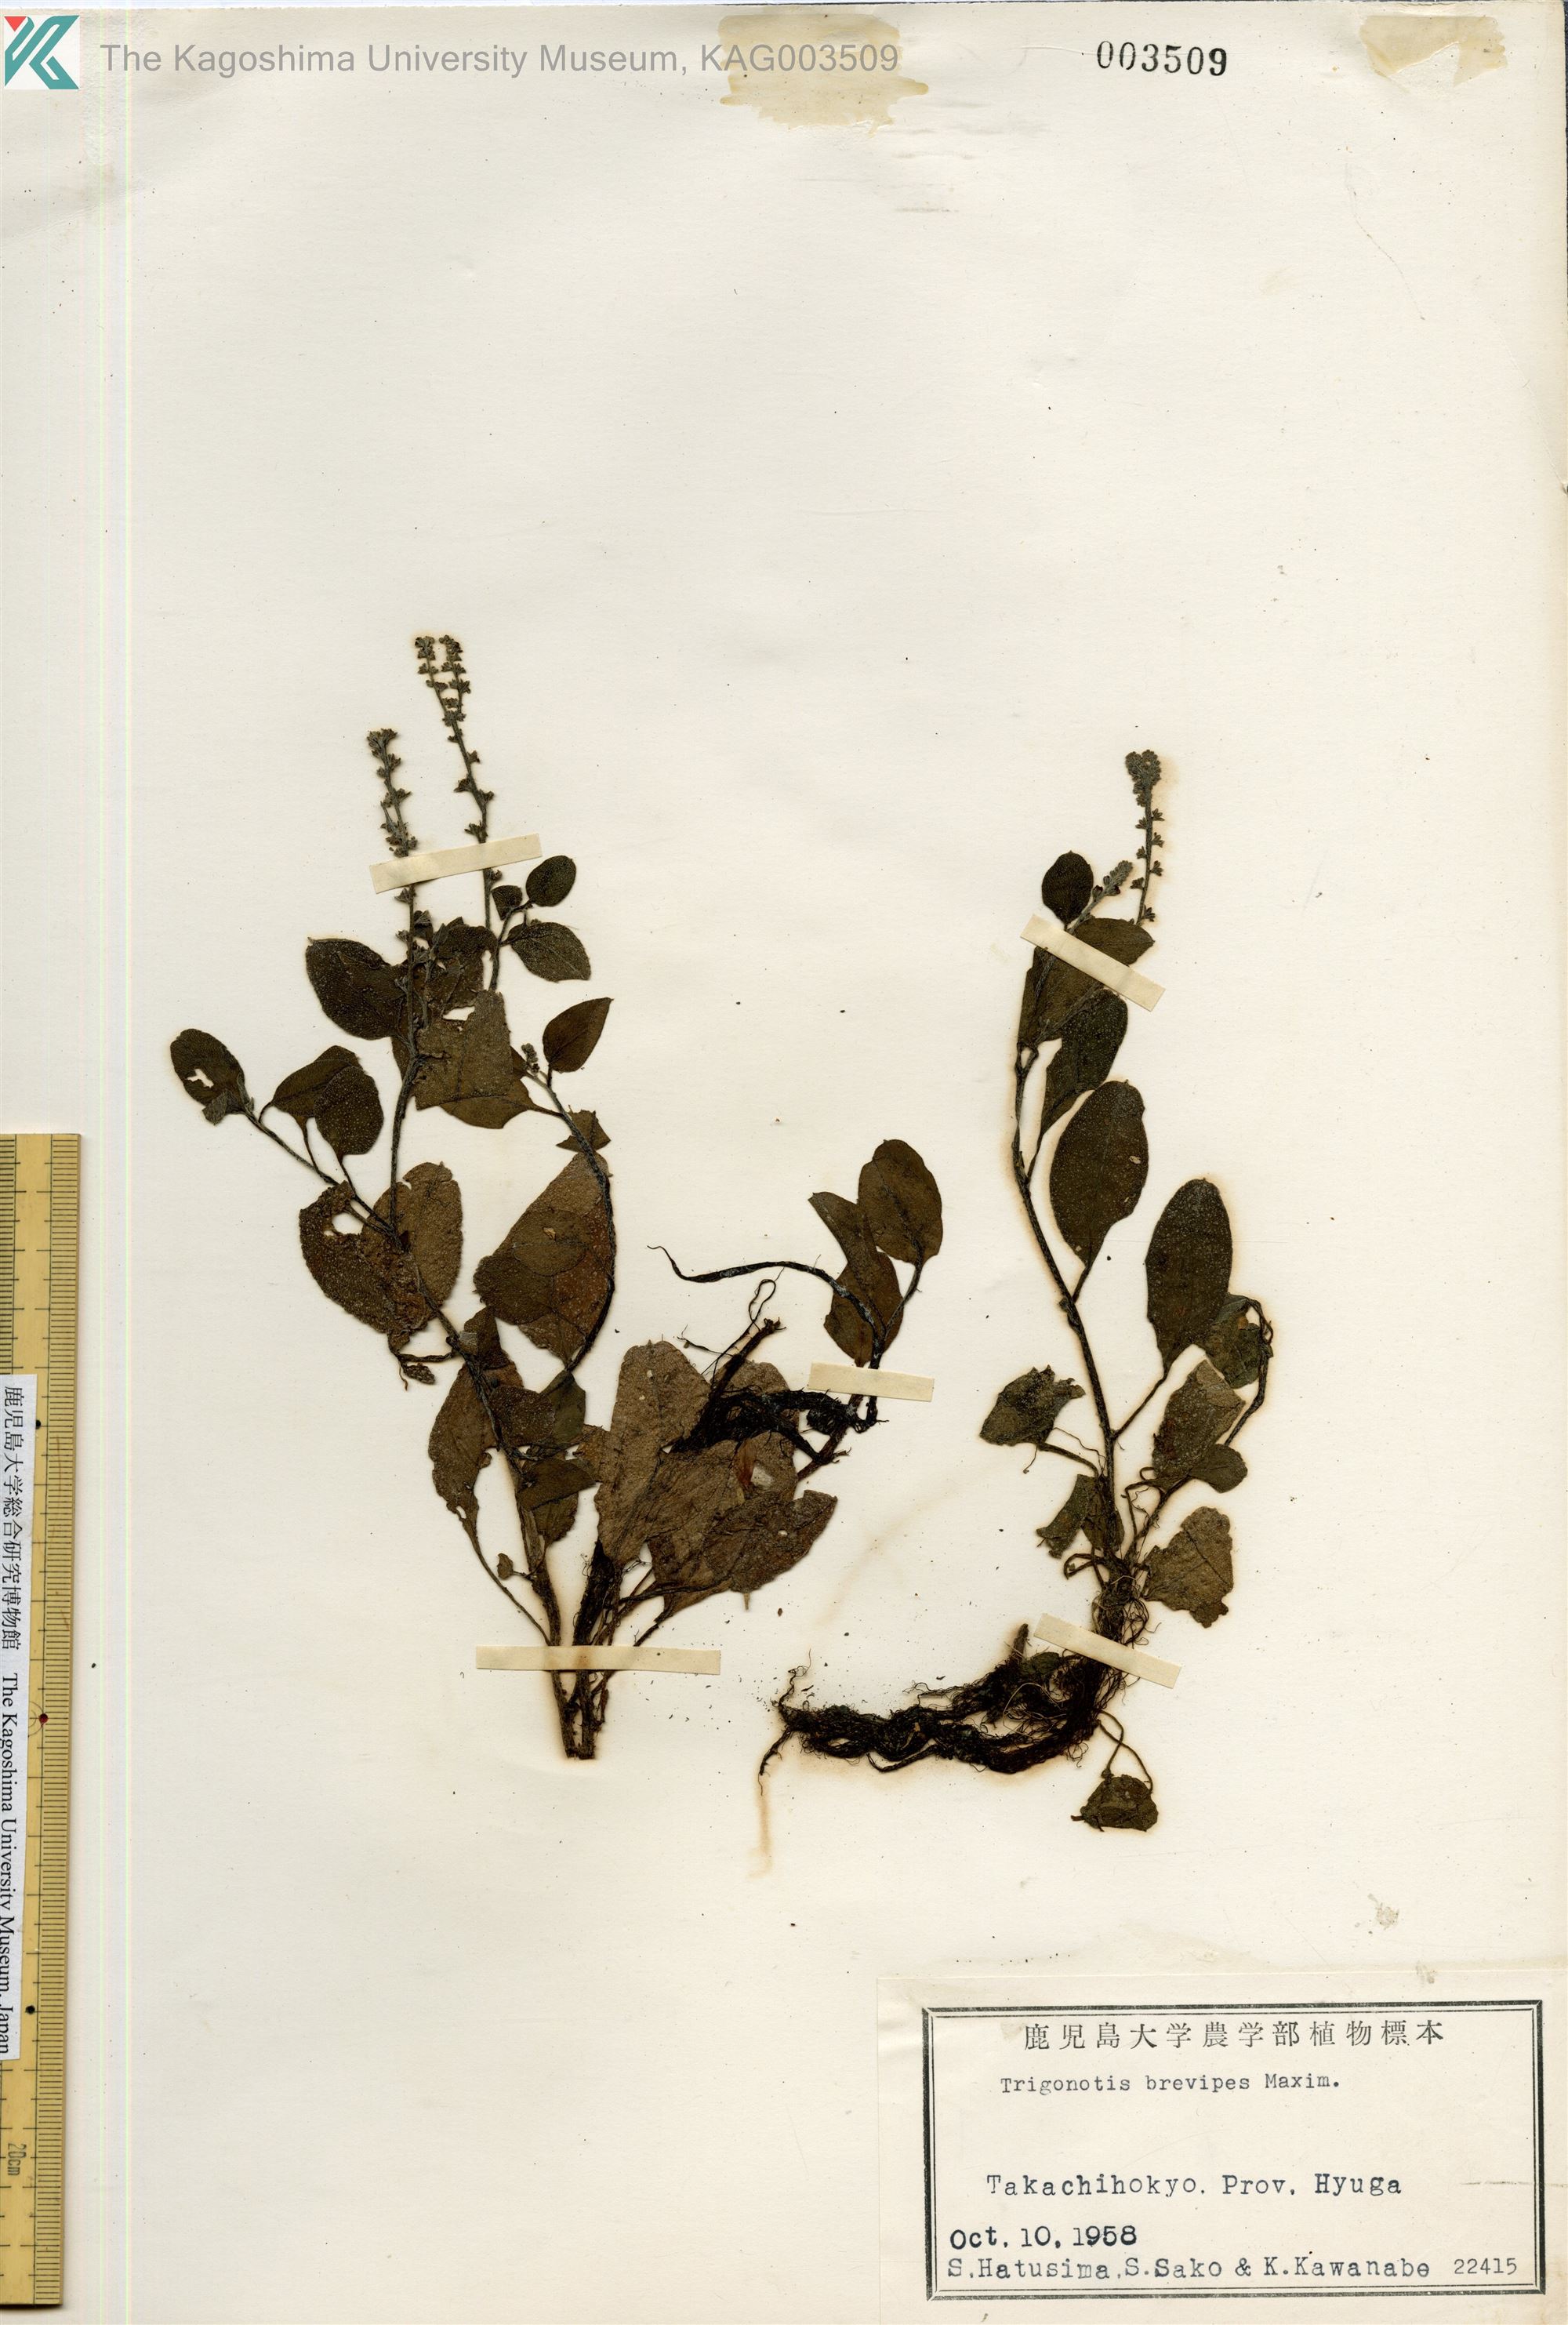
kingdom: Plantae
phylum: Tracheophyta
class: Magnoliopsida
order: Boraginales
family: Boraginaceae
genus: Trigonotis
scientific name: Trigonotis brevipes
